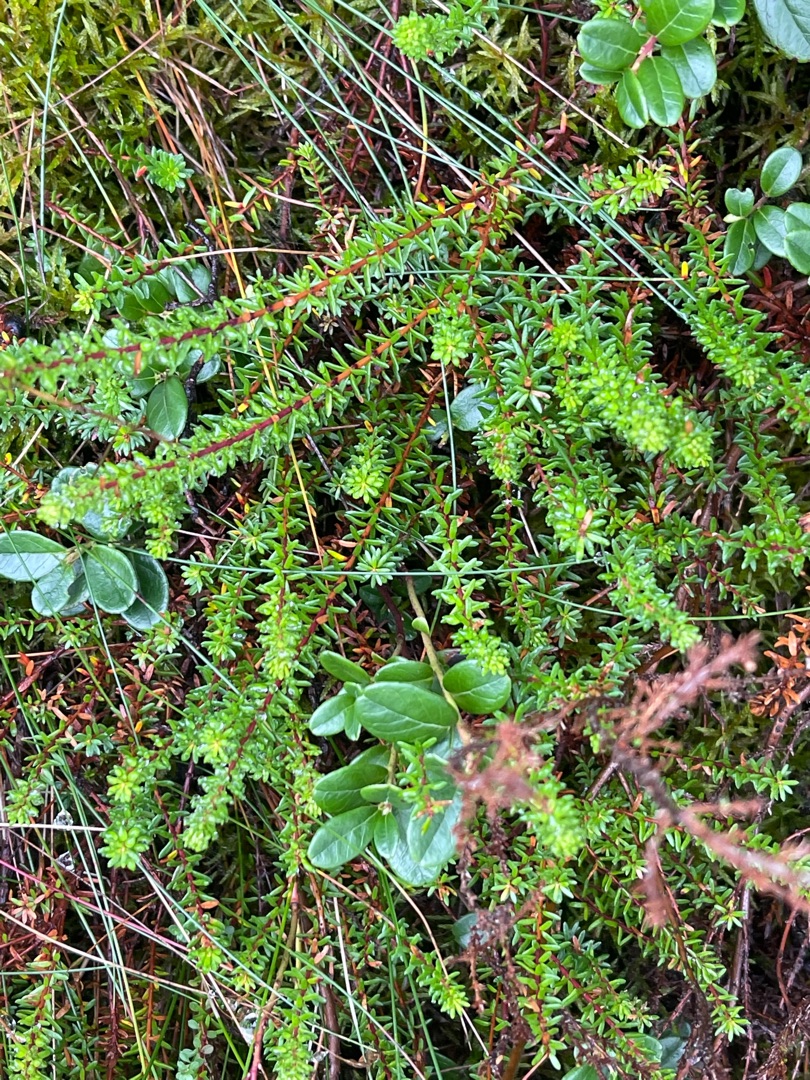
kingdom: Plantae
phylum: Tracheophyta
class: Magnoliopsida
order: Ericales
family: Ericaceae
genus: Empetrum
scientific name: Empetrum nigrum
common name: Revling
